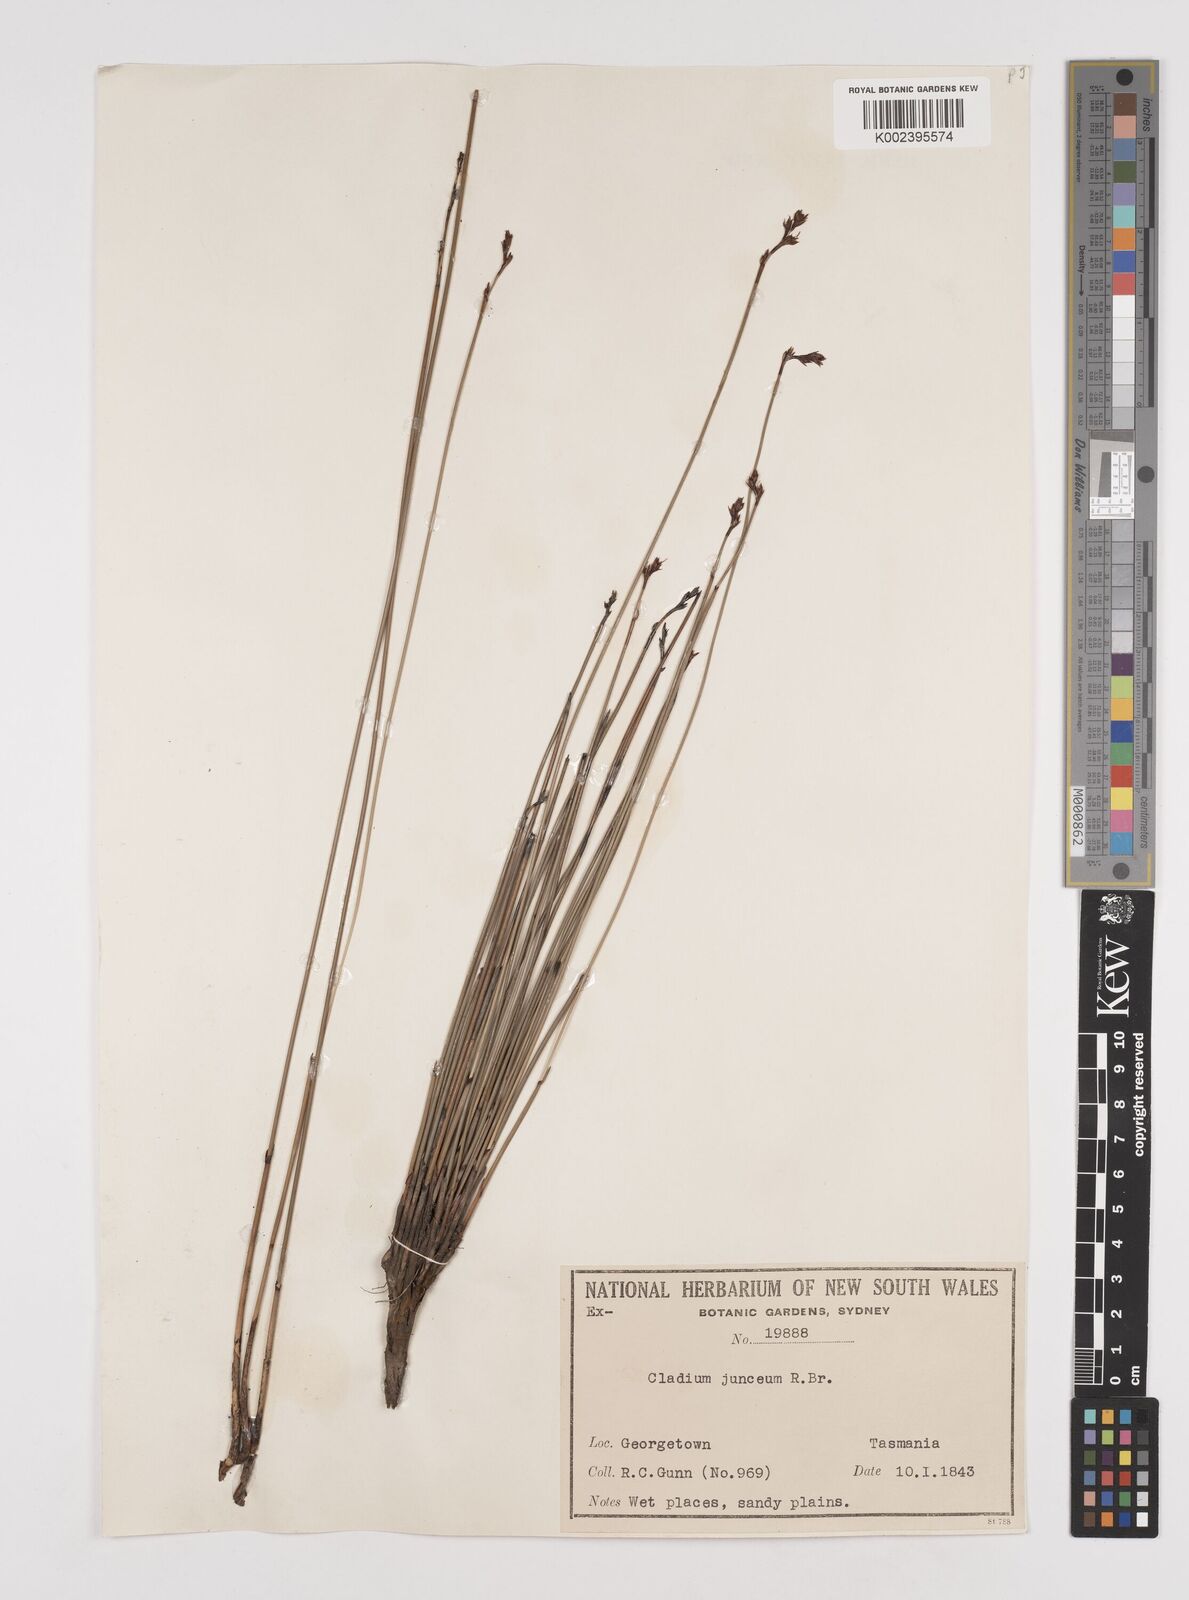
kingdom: Plantae
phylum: Tracheophyta
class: Liliopsida
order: Poales
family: Cyperaceae
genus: Machaerina
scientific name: Machaerina juncea
